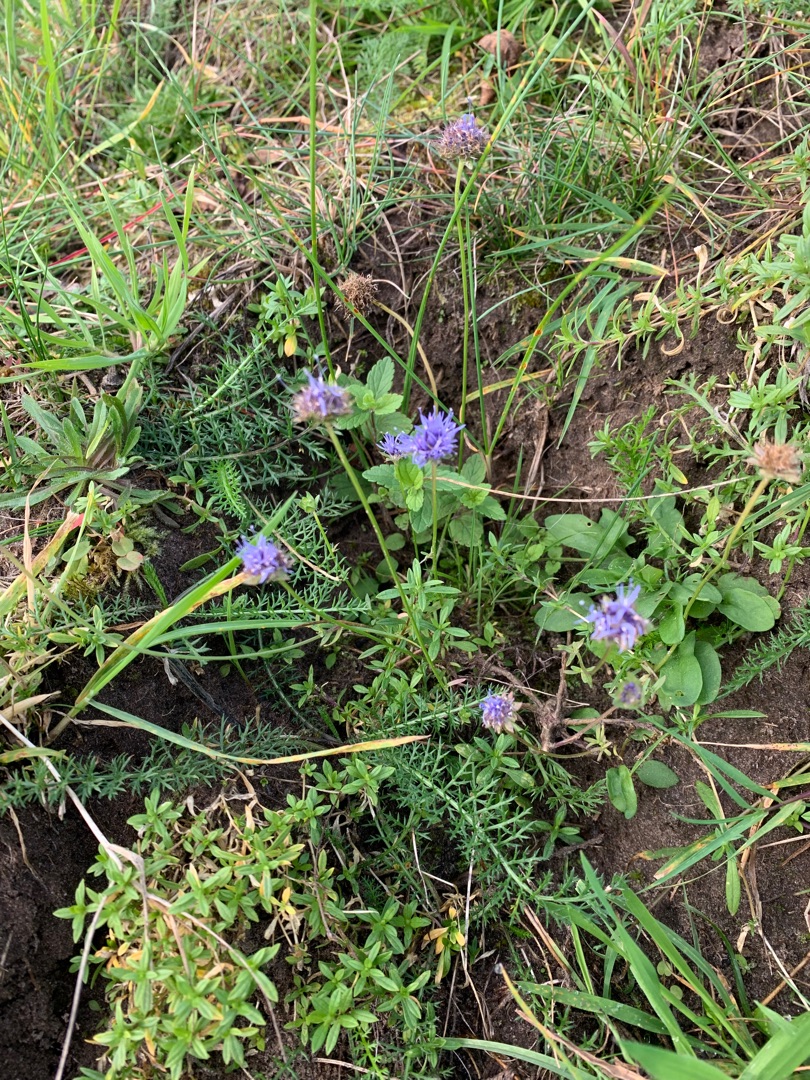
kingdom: Plantae
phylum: Tracheophyta
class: Magnoliopsida
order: Asterales
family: Campanulaceae
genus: Jasione
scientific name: Jasione montana
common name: Blåmunke
